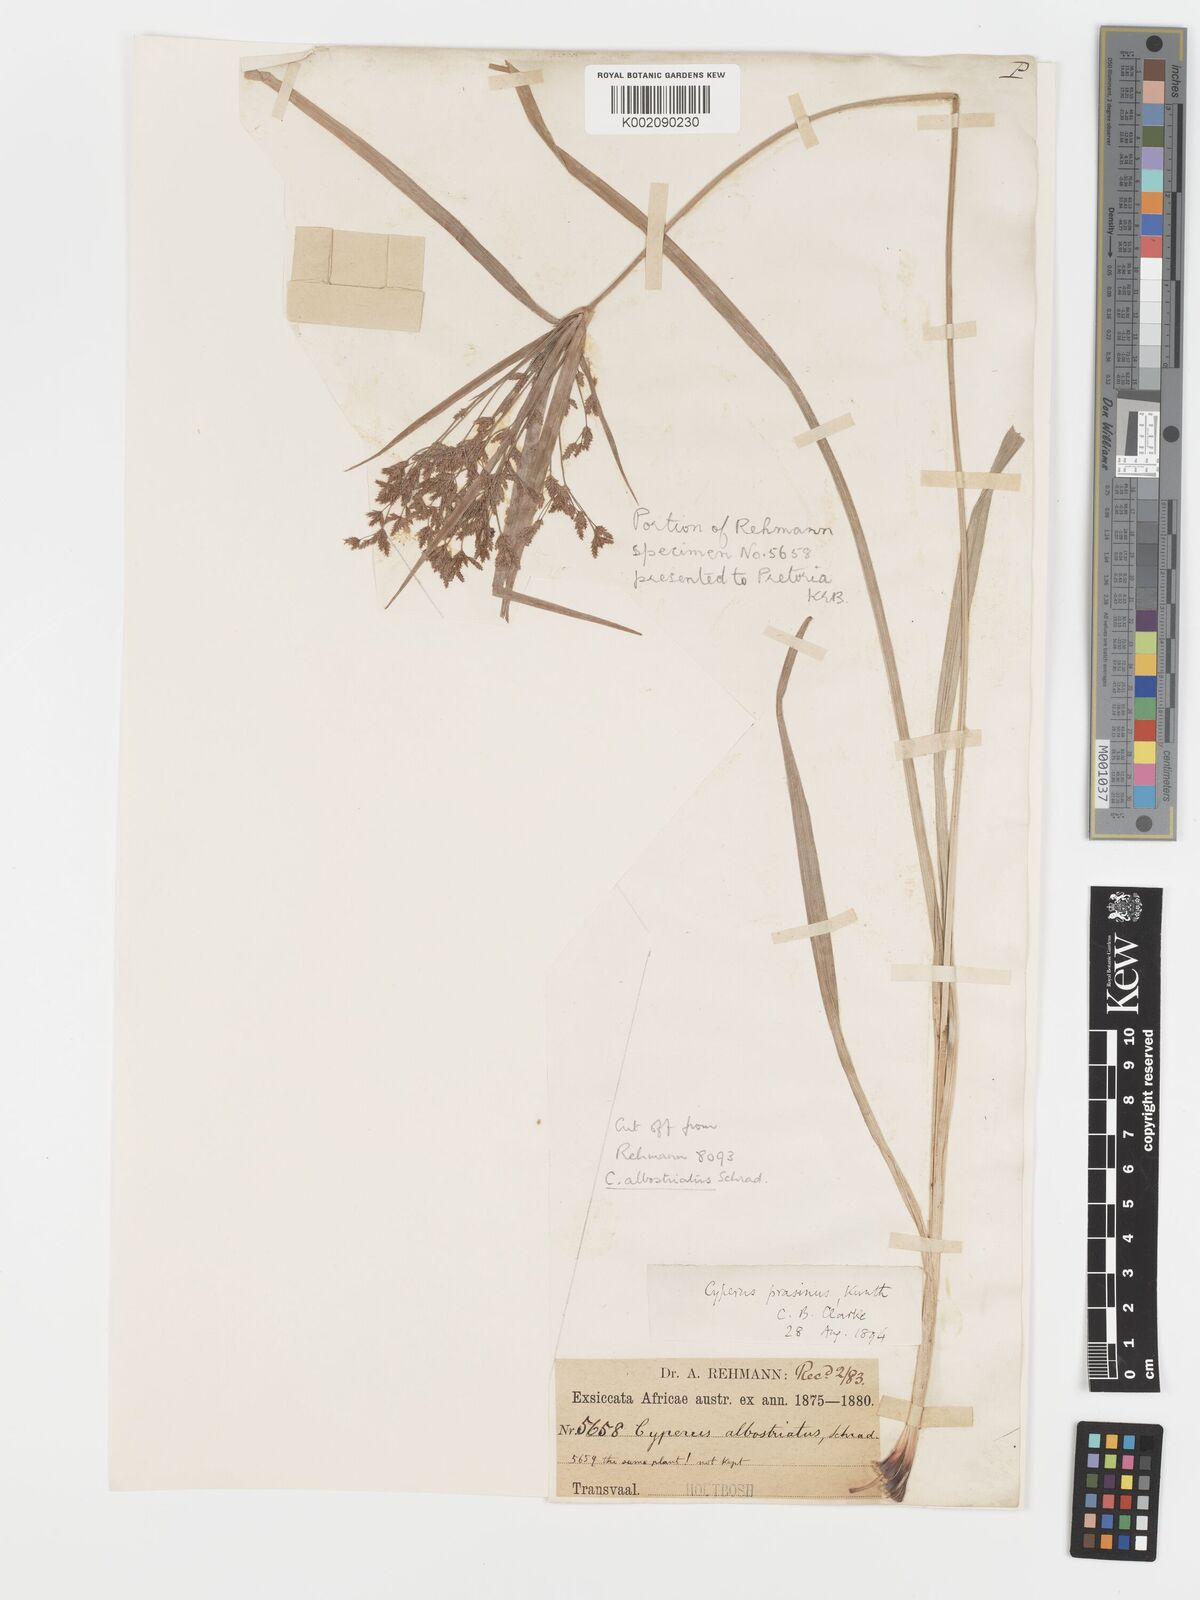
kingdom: Plantae
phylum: Tracheophyta
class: Liliopsida
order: Poales
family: Cyperaceae
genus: Cyperus
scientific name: Cyperus albostriatus
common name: Dwarf umbrella-grass
